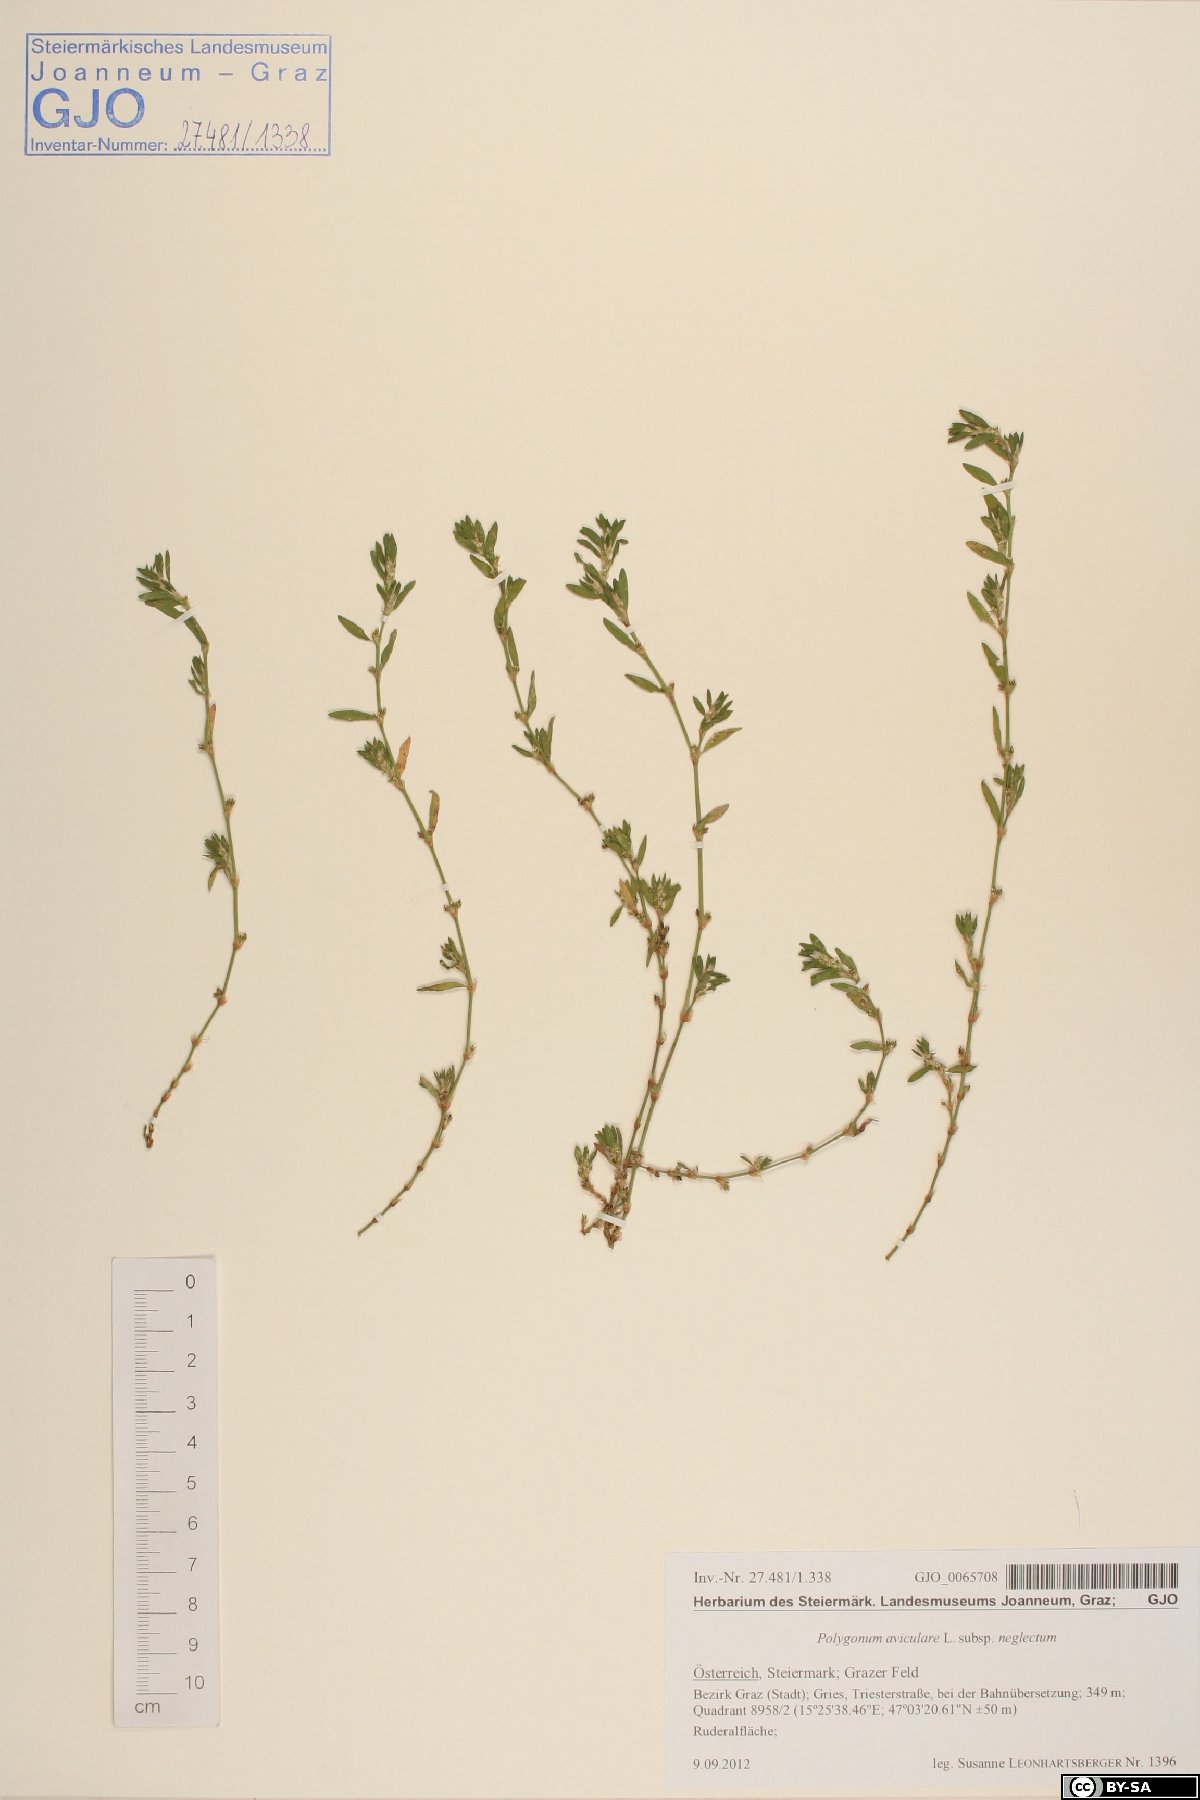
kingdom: Plantae
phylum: Tracheophyta
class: Magnoliopsida
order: Caryophyllales
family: Polygonaceae
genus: Polygonum
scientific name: Polygonum aviculare
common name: Prostrate knotweed
